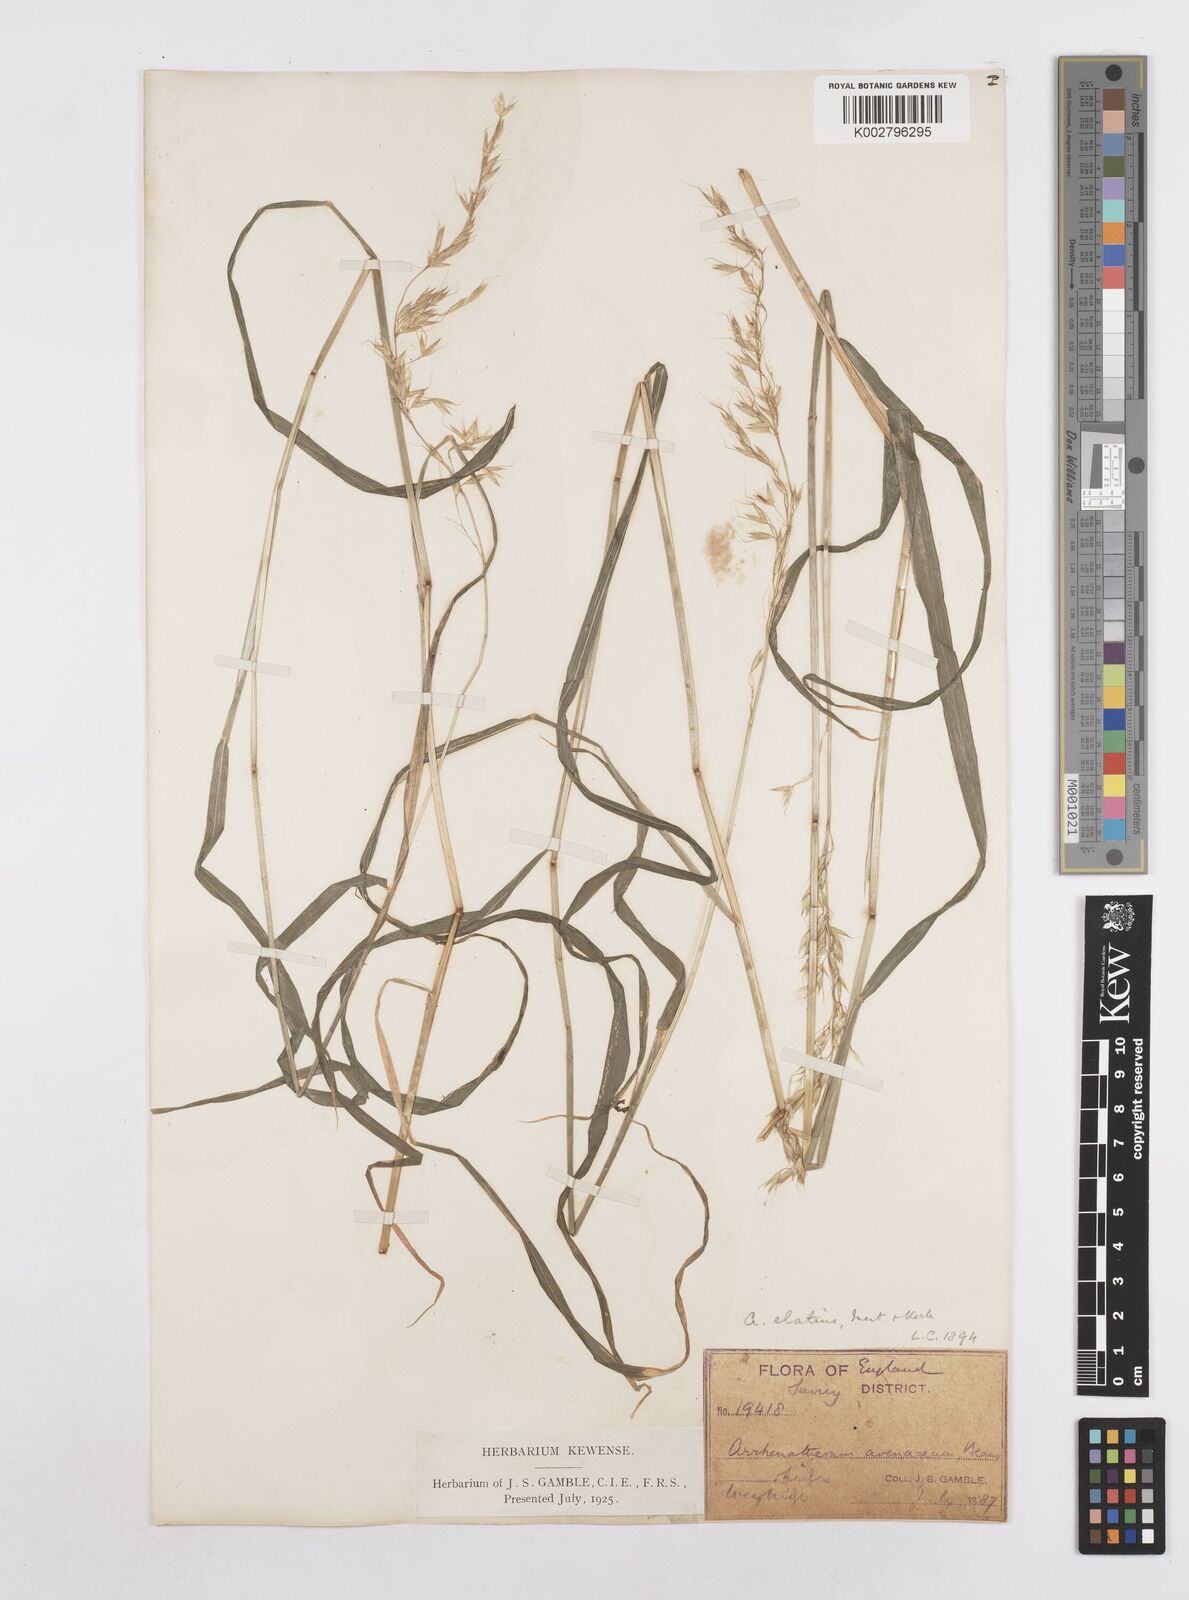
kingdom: Plantae
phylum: Tracheophyta
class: Liliopsida
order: Poales
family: Poaceae
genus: Arrhenatherum
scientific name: Arrhenatherum elatius
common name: Tall oatgrass
